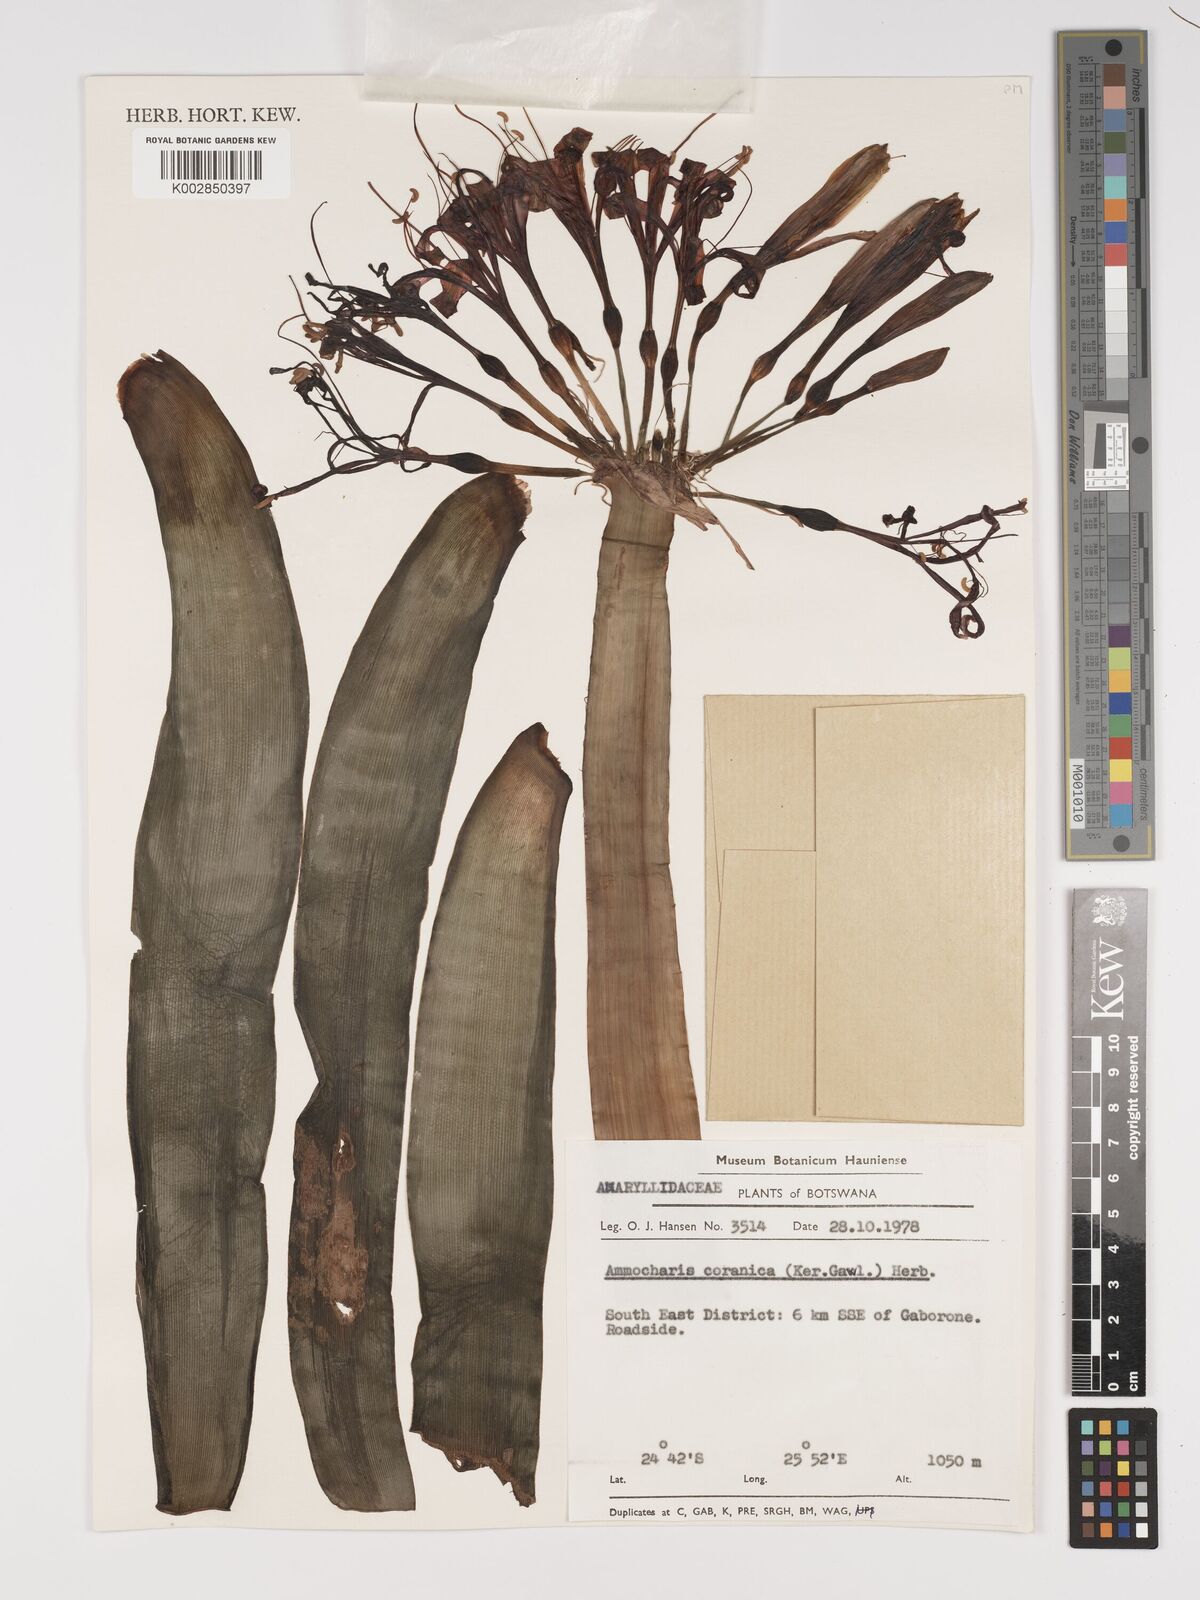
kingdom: Plantae
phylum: Tracheophyta
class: Liliopsida
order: Asparagales
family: Amaryllidaceae
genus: Ammocharis
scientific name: Ammocharis coranica
